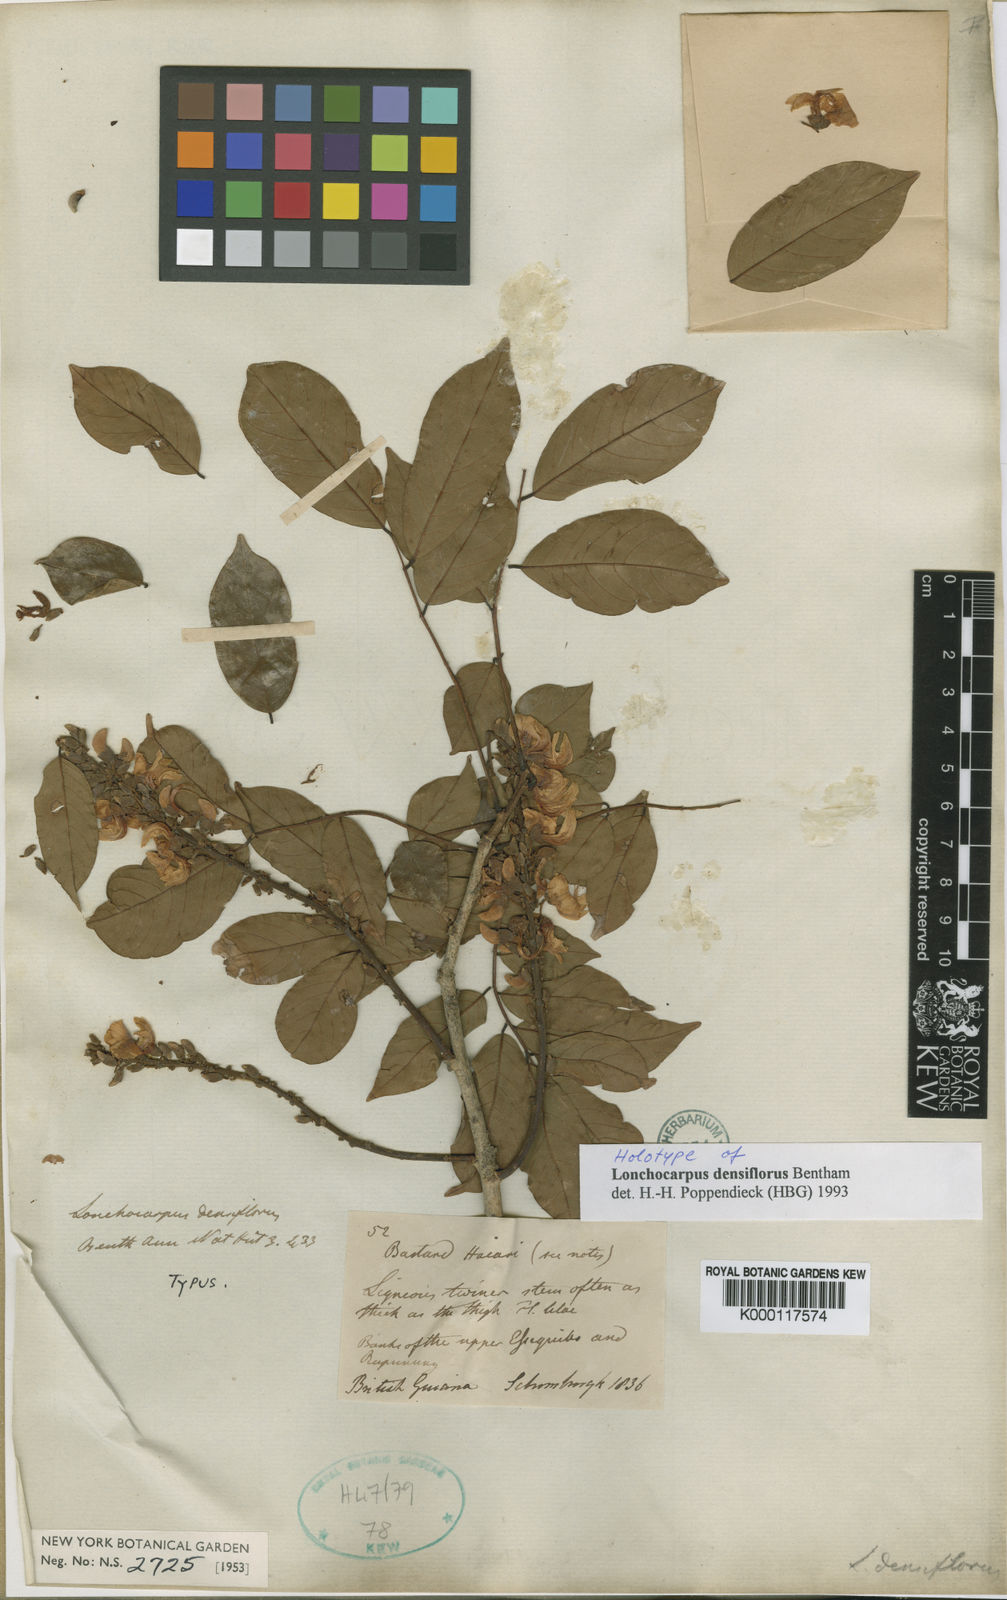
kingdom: Plantae
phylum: Tracheophyta
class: Magnoliopsida
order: Fabales
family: Fabaceae
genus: Deguelia
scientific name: Deguelia densiflora
